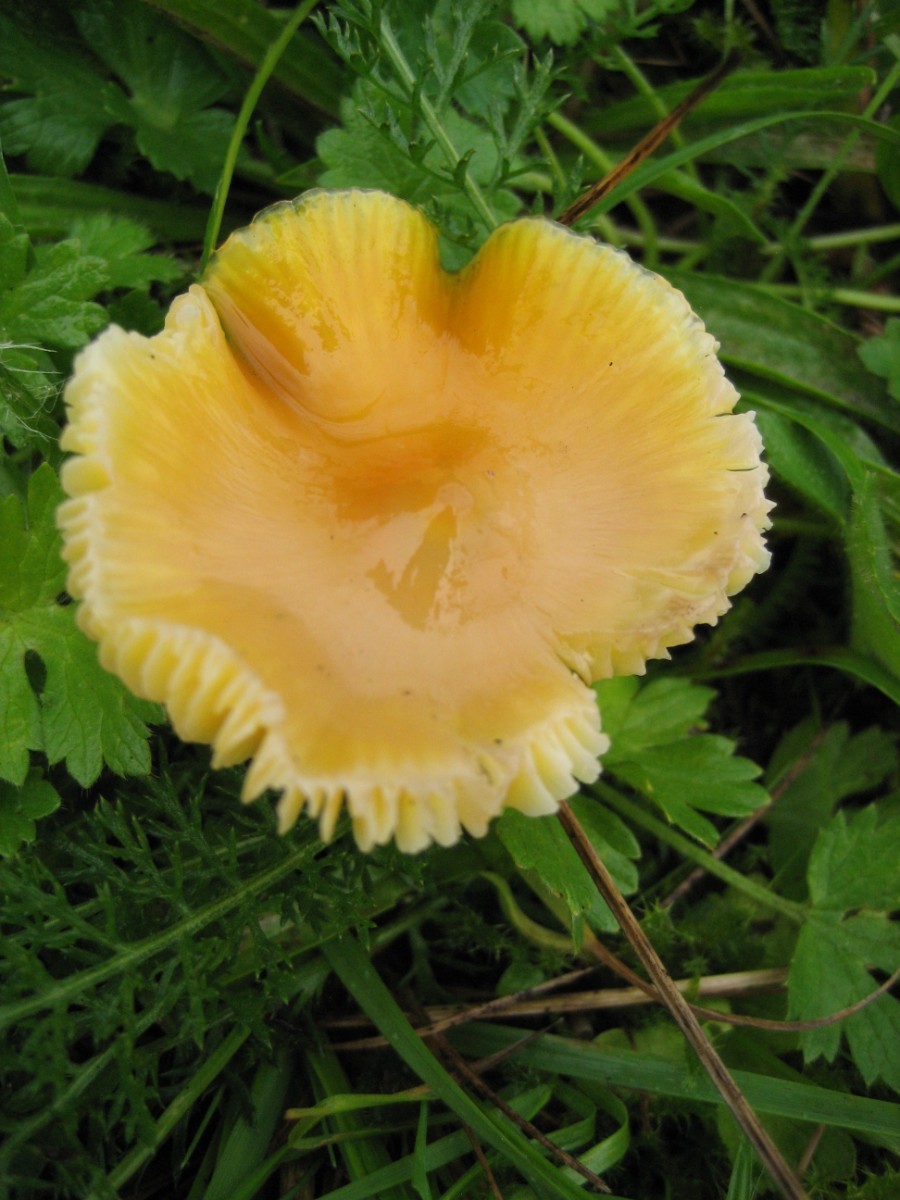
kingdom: Fungi
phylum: Basidiomycota
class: Agaricomycetes
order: Agaricales
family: Hygrophoraceae
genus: Hygrocybe
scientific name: Hygrocybe
